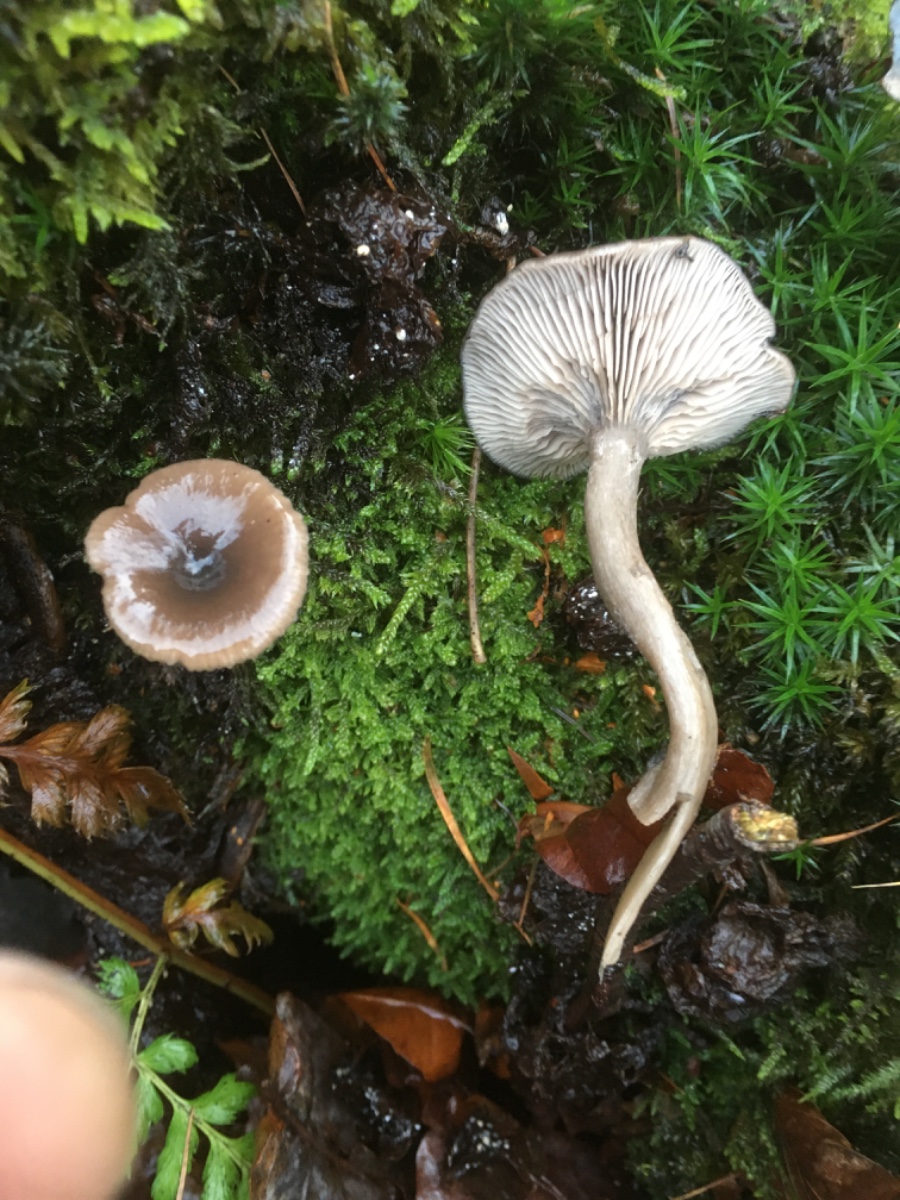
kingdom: Fungi
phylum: Basidiomycota
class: Agaricomycetes
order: Agaricales
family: Pseudoclitocybaceae
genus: Pseudoclitocybe
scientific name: Pseudoclitocybe cyathiformis
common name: almindelig bægertragthat
